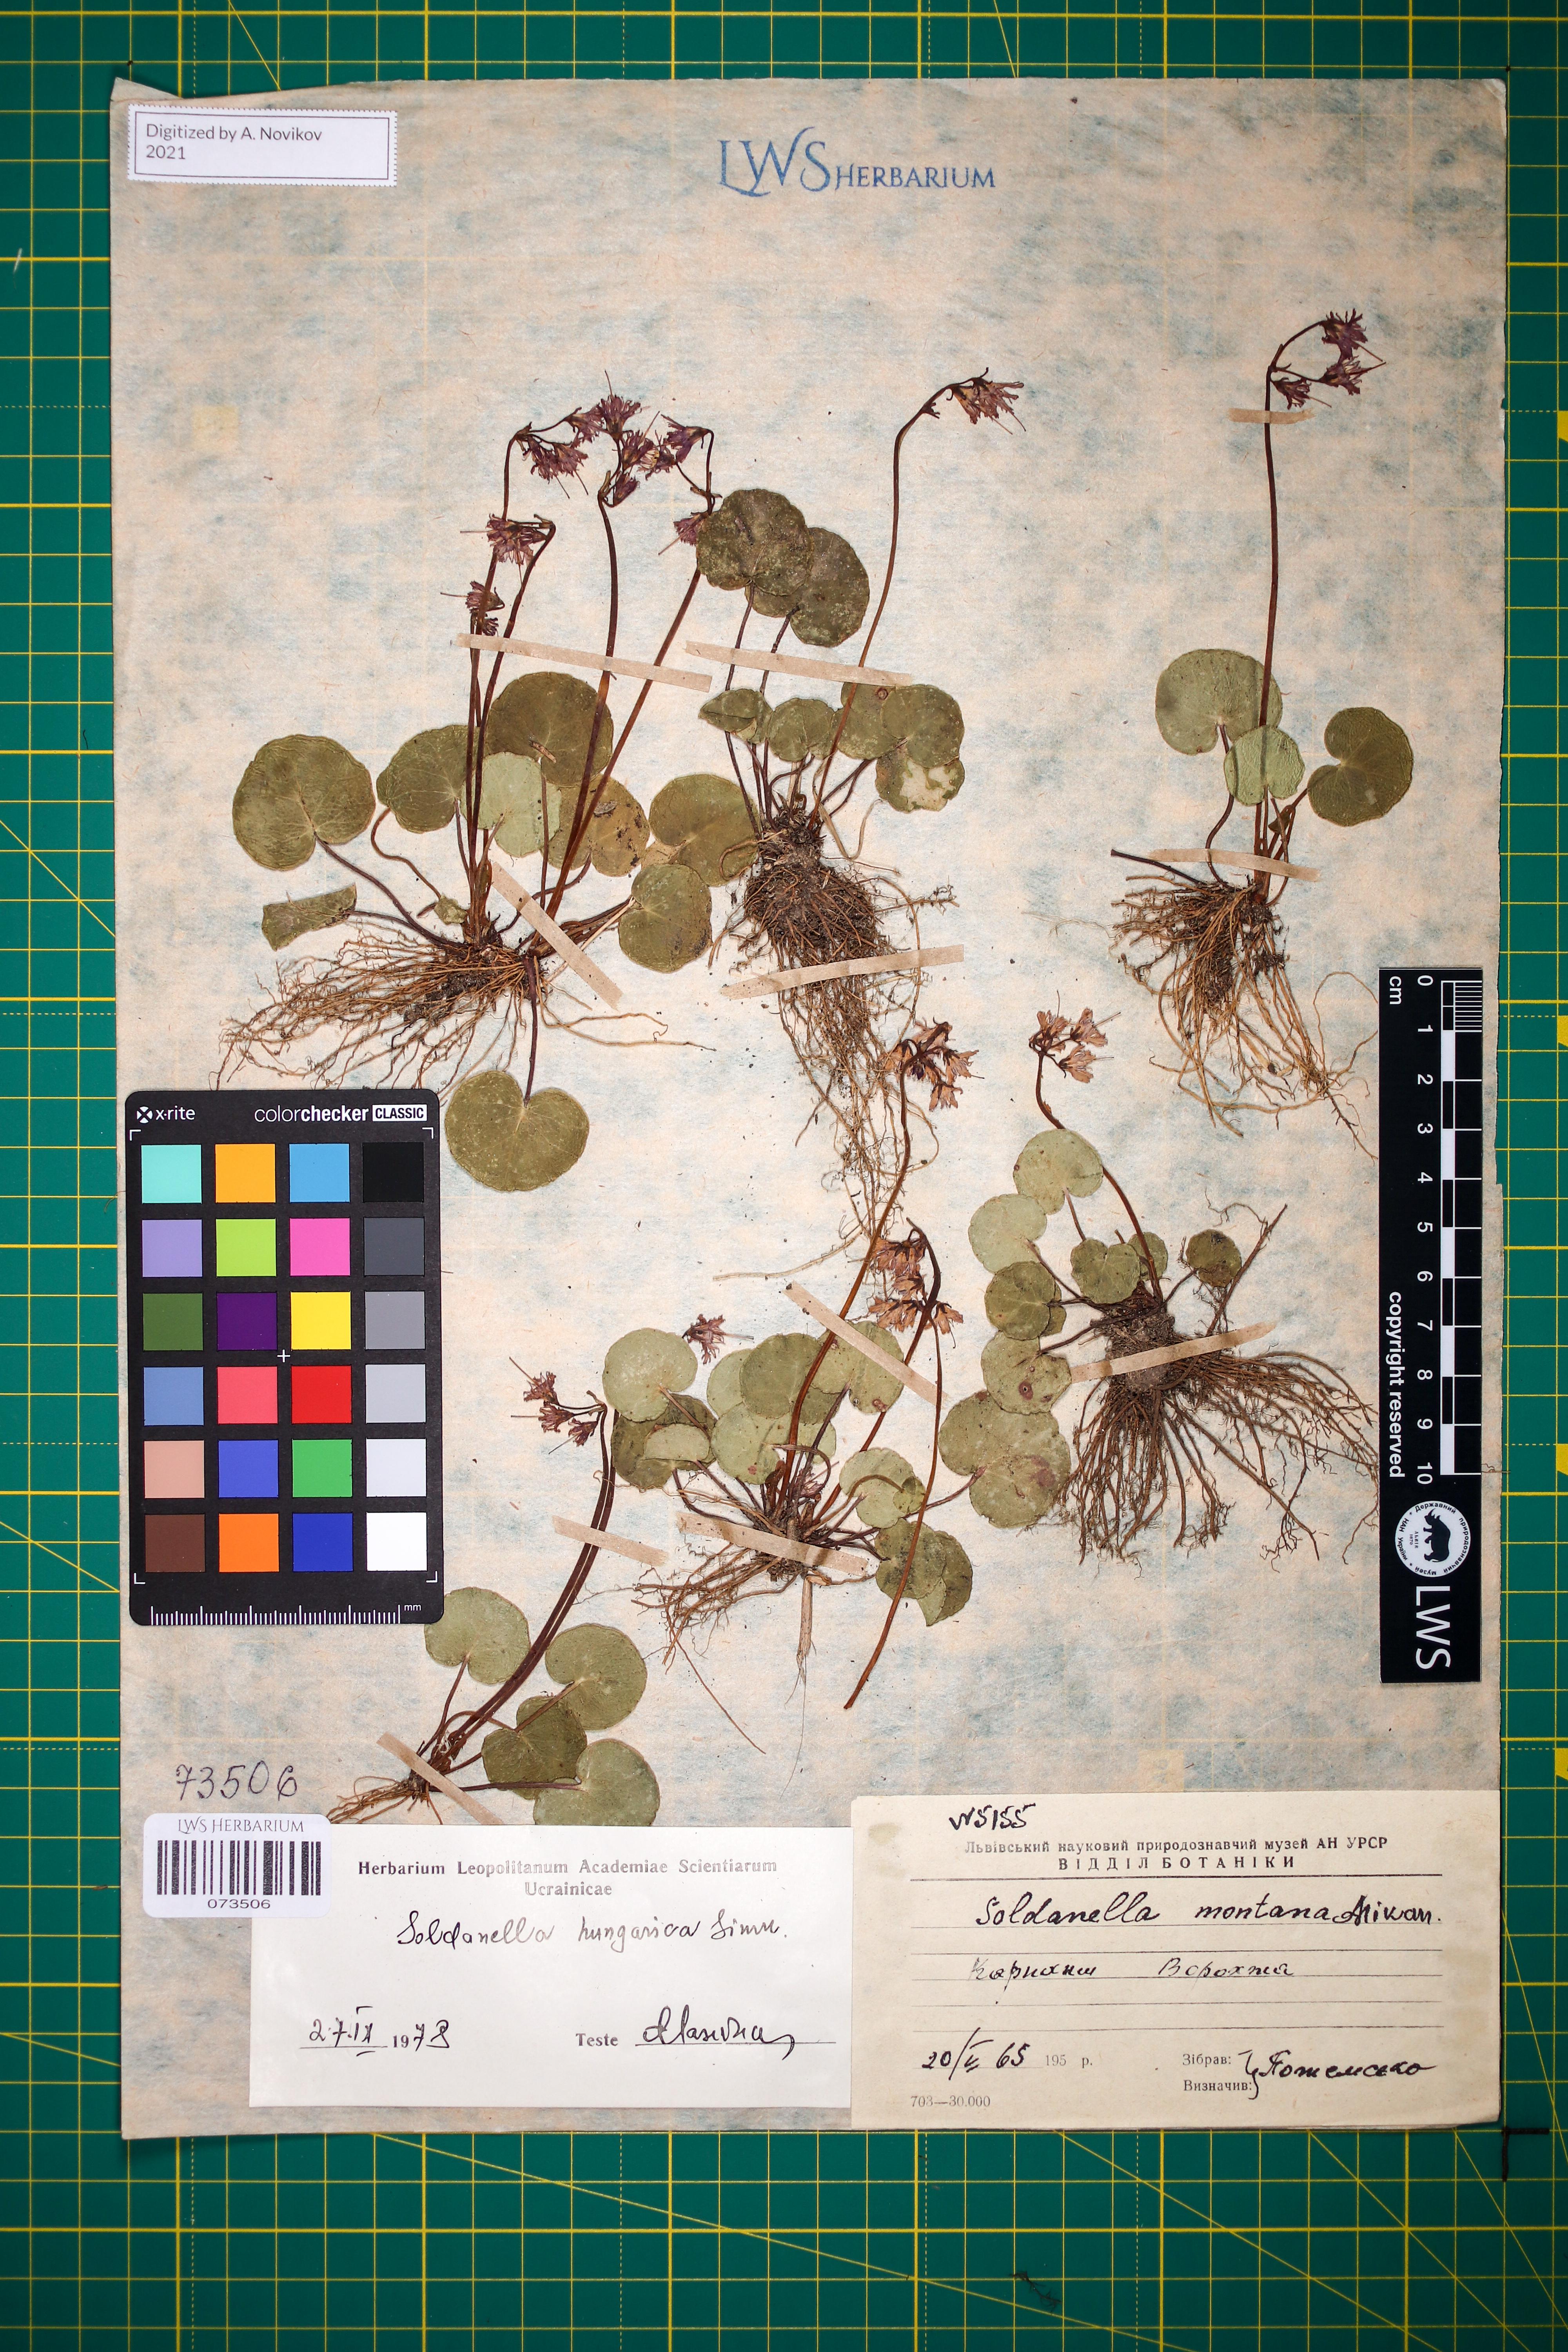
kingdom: Plantae
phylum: Tracheophyta
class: Magnoliopsida
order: Ericales
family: Primulaceae
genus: Soldanella
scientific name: Soldanella hungarica
